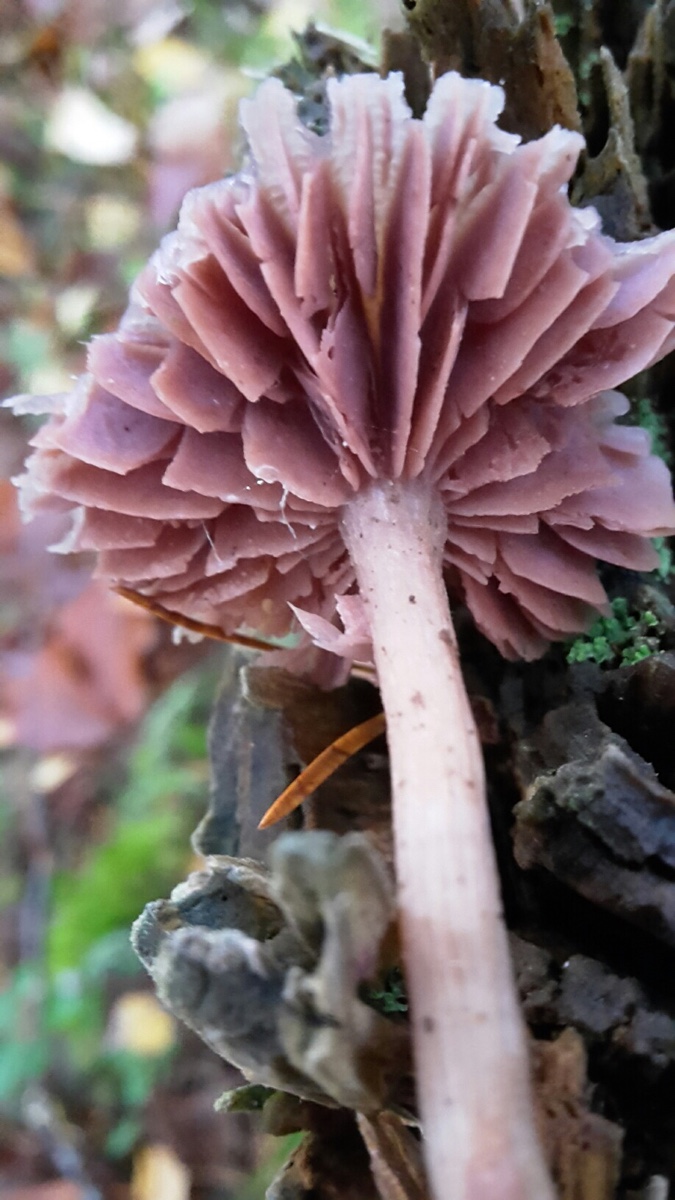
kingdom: Fungi
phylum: Basidiomycota
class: Agaricomycetes
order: Agaricales
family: Hydnangiaceae
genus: Laccaria
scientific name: Laccaria amethystina
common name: violet ametysthat
